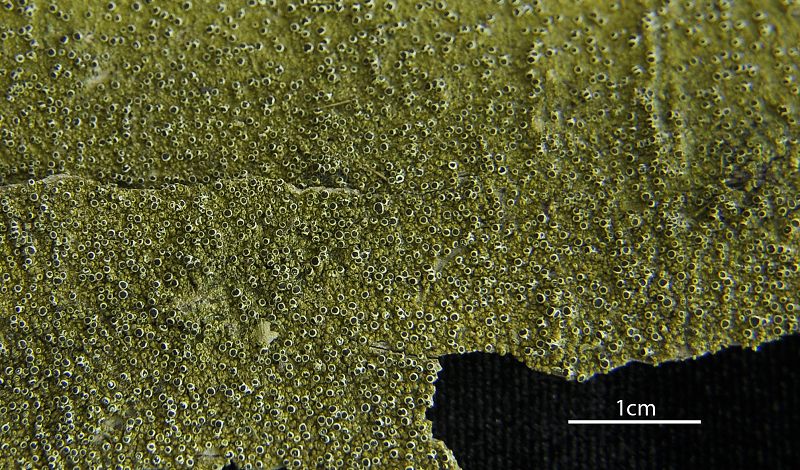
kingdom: Fungi
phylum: Ascomycota
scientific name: Ascomycota
